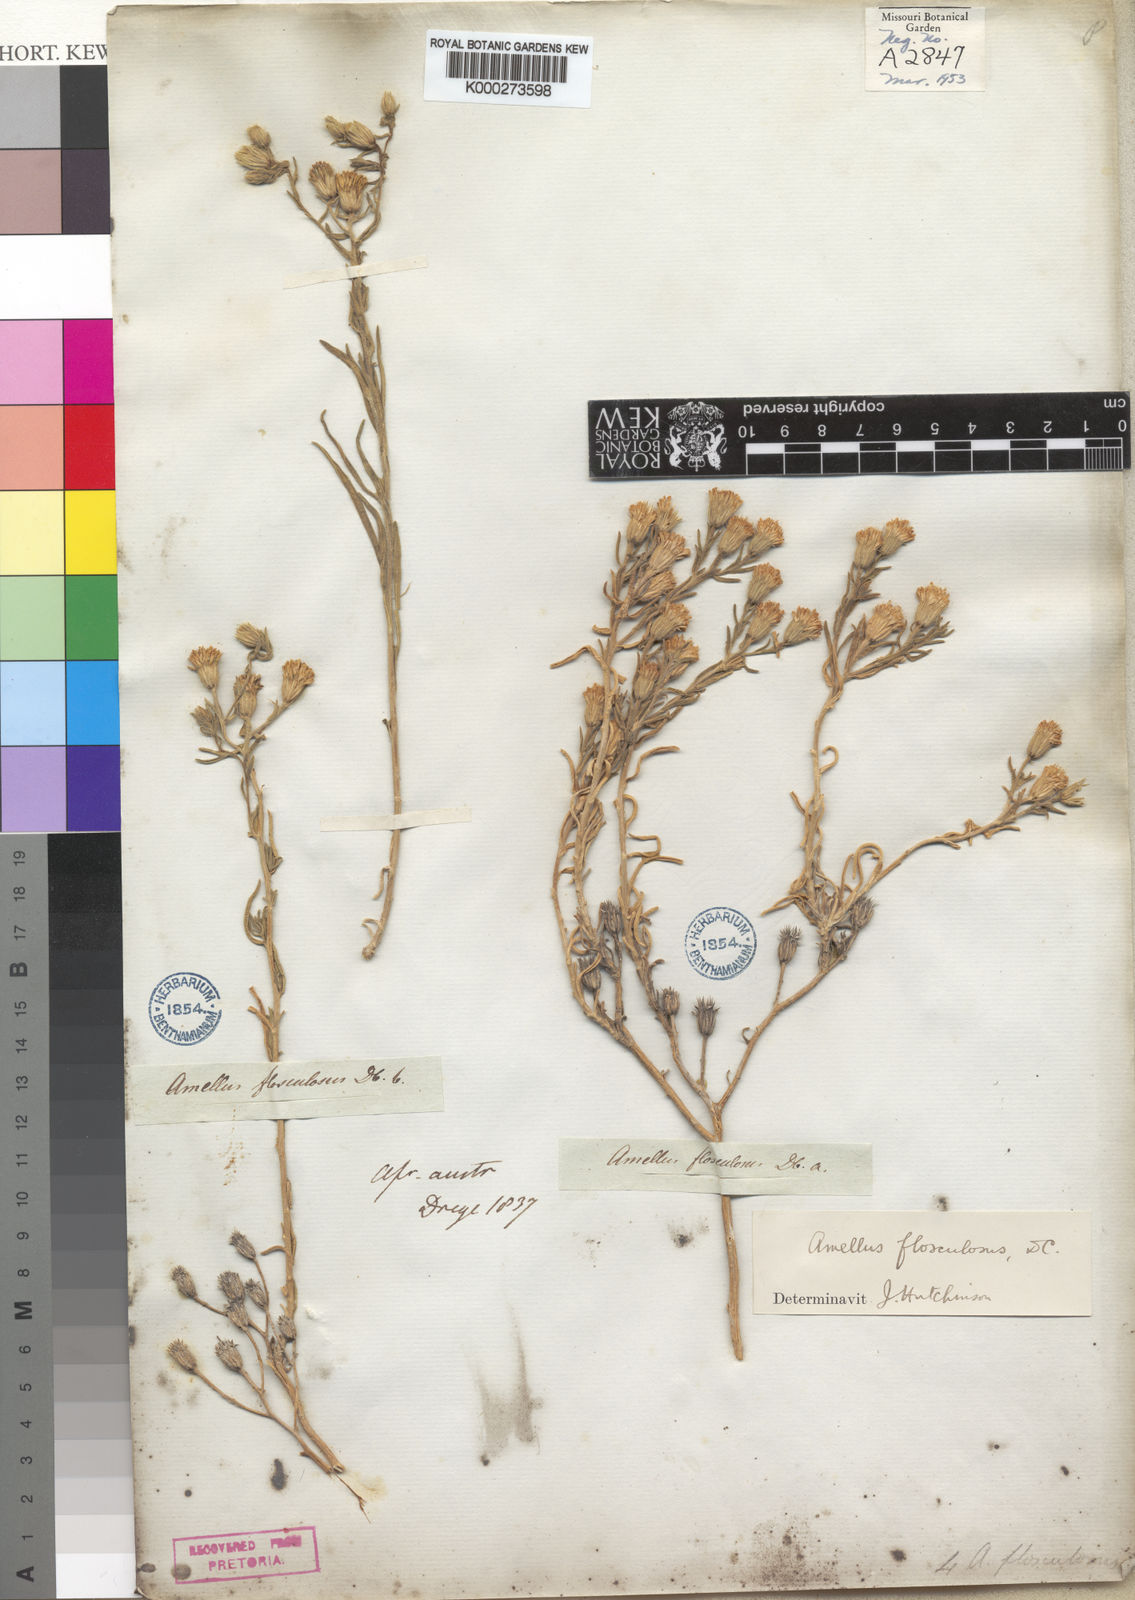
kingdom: Plantae
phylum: Tracheophyta
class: Magnoliopsida
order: Asterales
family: Asteraceae
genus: Amellus
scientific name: Amellus flosculosus
